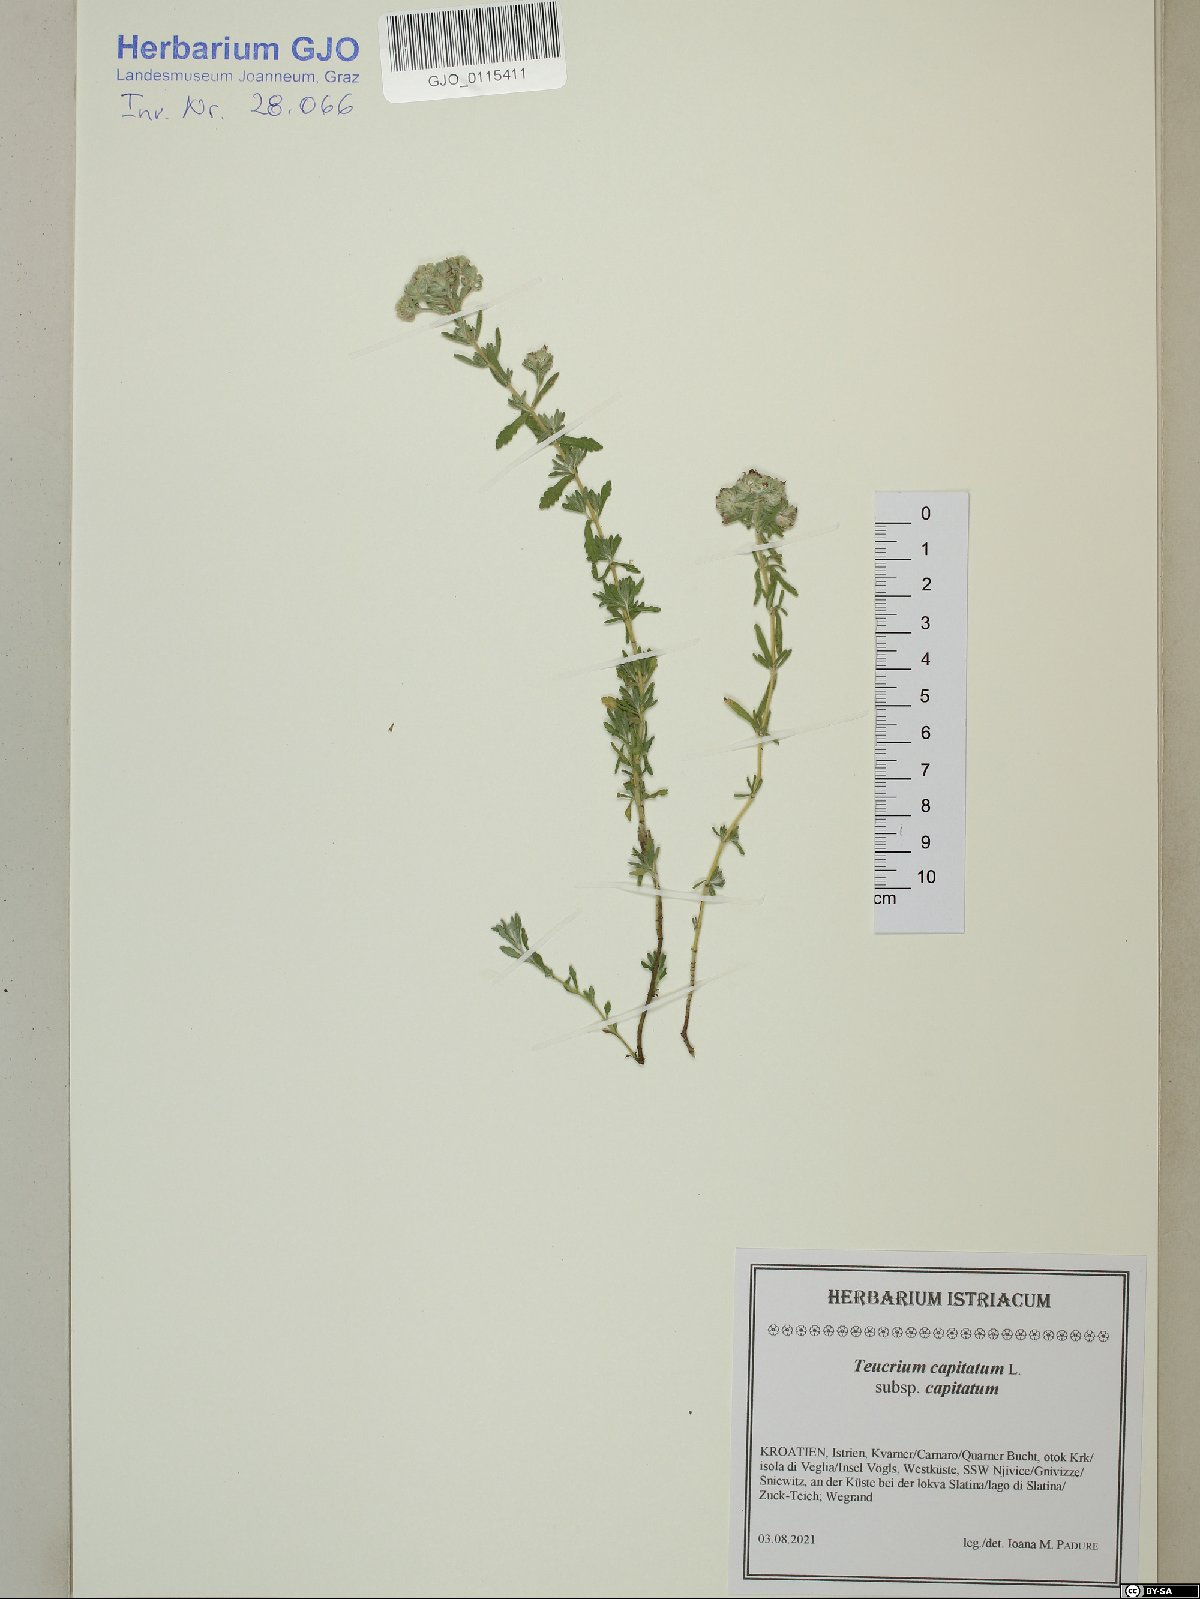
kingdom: Plantae
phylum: Tracheophyta
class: Magnoliopsida
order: Lamiales
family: Lamiaceae
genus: Teucrium
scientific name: Teucrium capitatum
